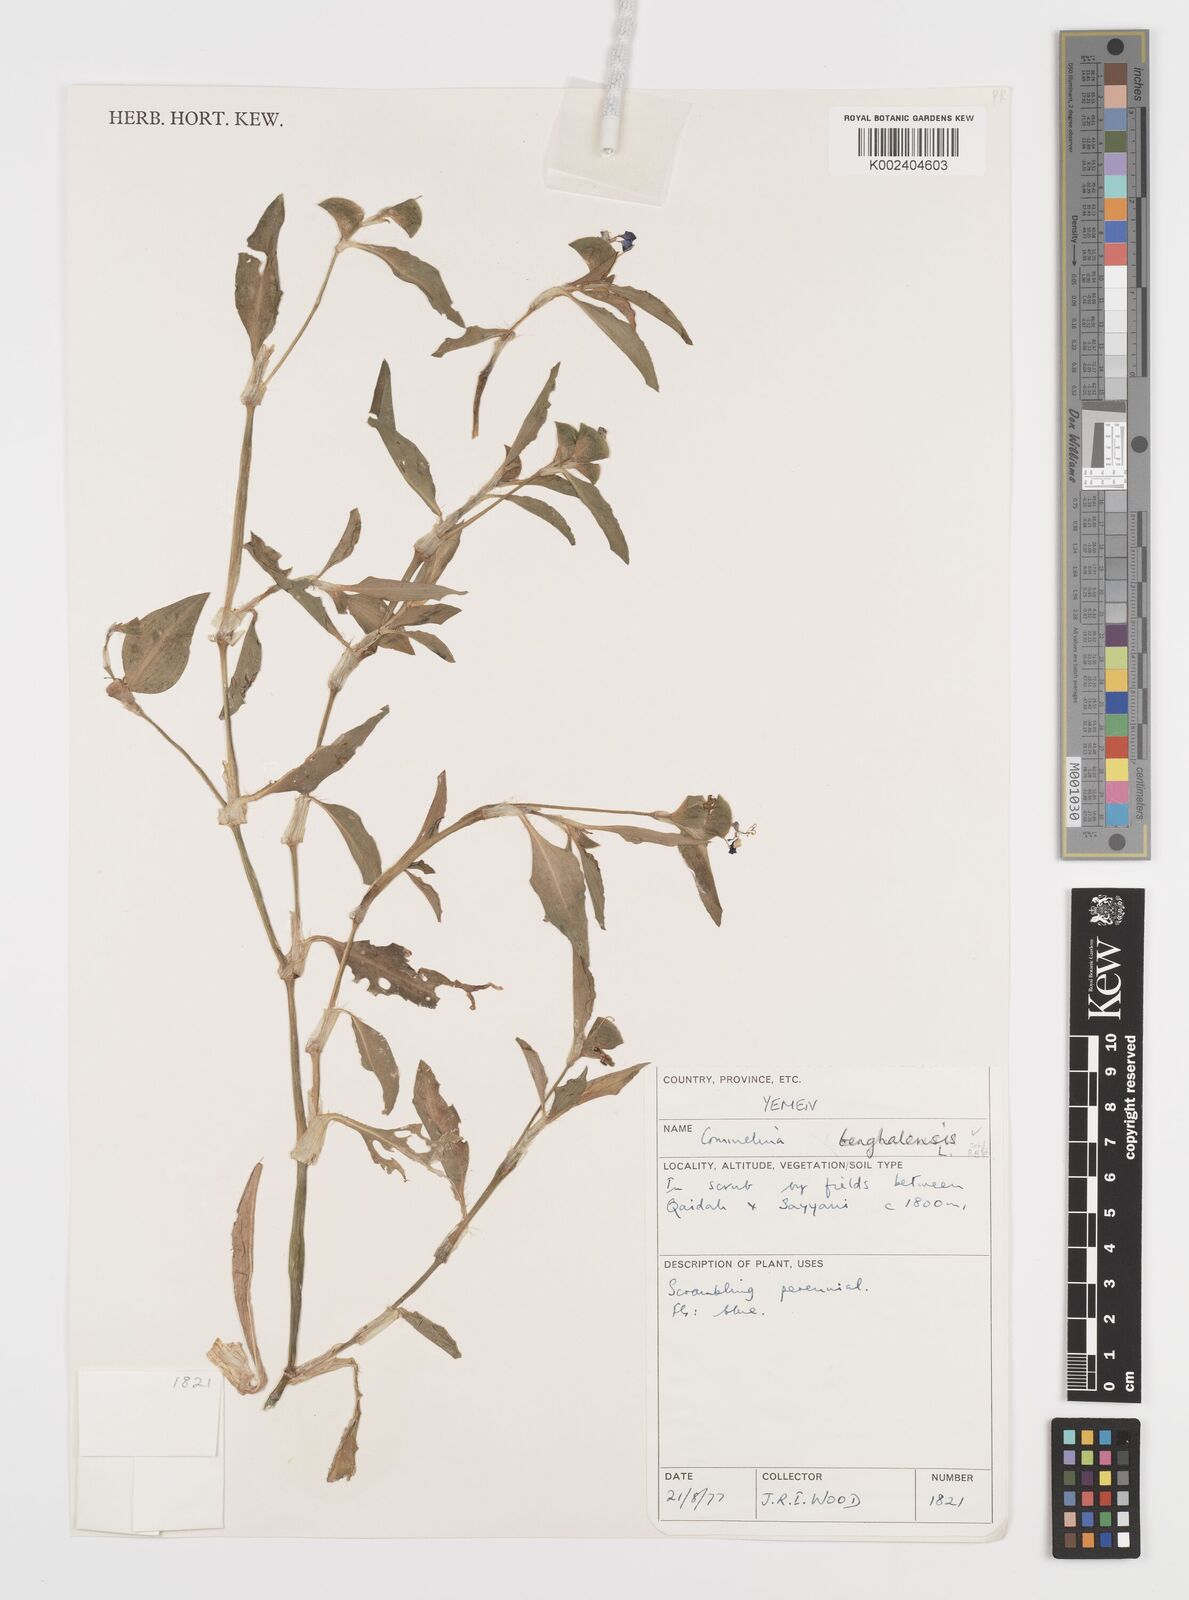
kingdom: Plantae
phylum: Tracheophyta
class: Liliopsida
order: Commelinales
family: Commelinaceae
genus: Commelina
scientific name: Commelina benghalensis
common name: Jio
